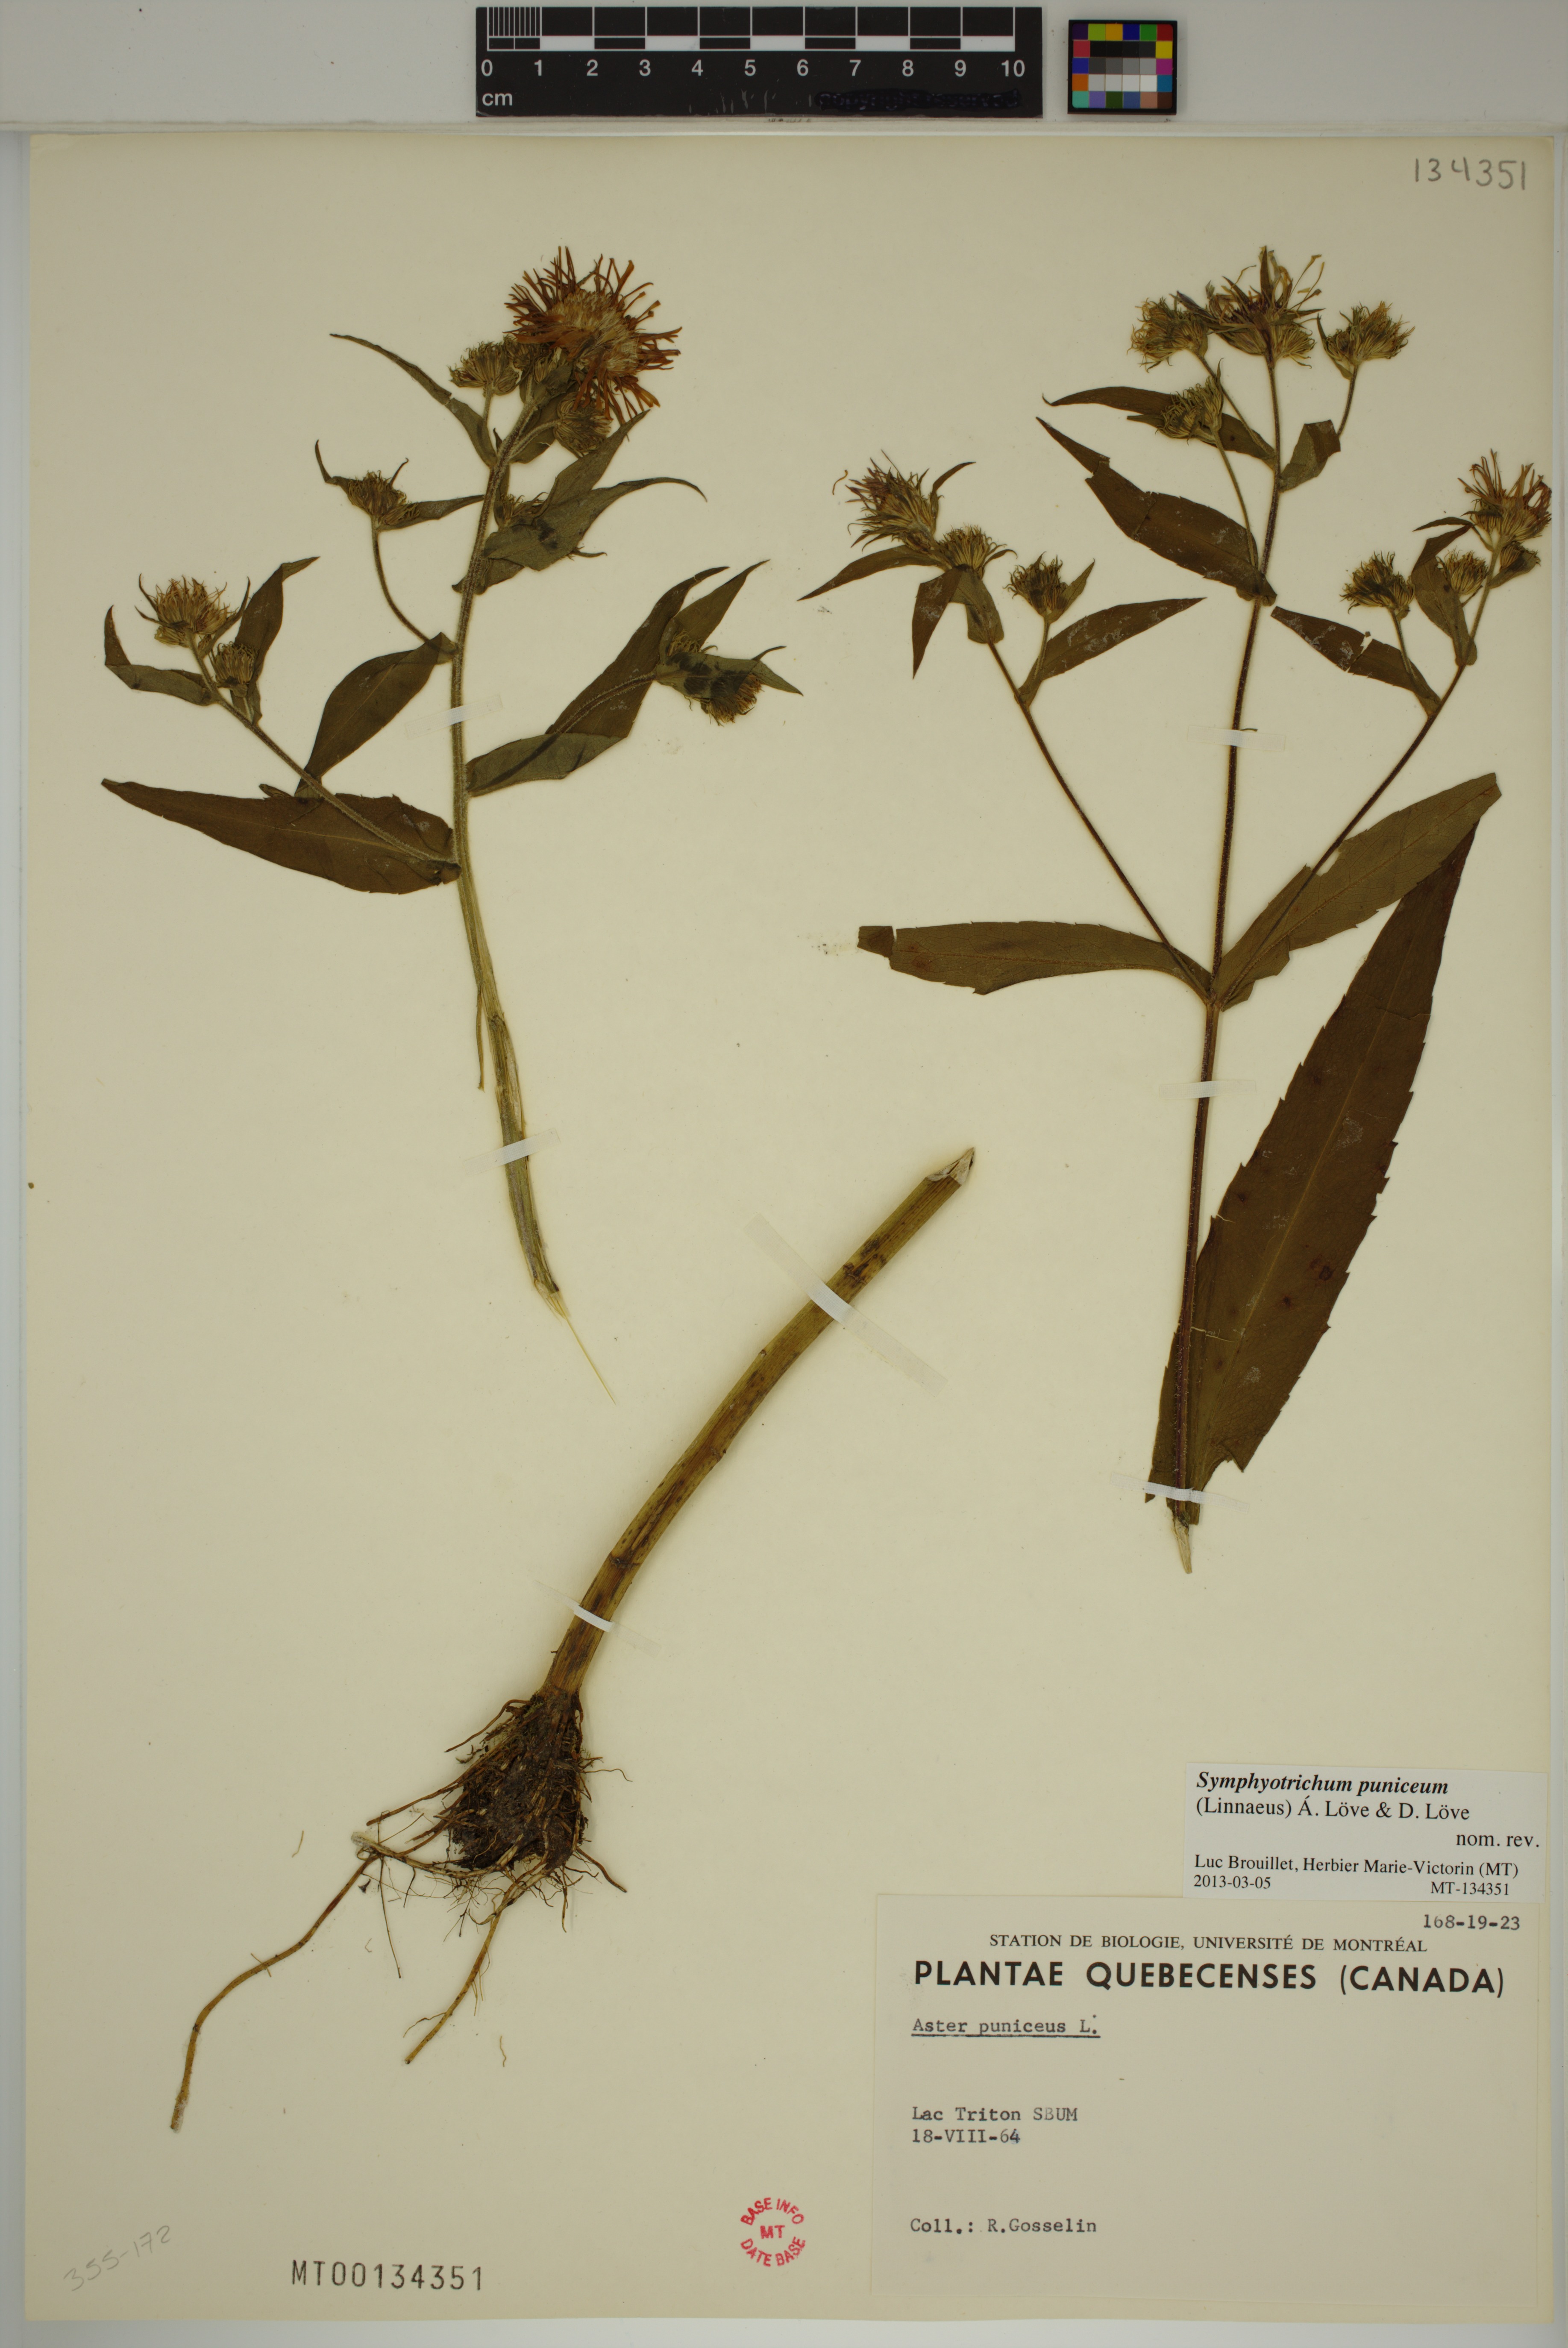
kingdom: Plantae
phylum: Tracheophyta
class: Magnoliopsida
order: Asterales
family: Asteraceae
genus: Symphyotrichum
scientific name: Symphyotrichum puniceum
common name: Bog aster
